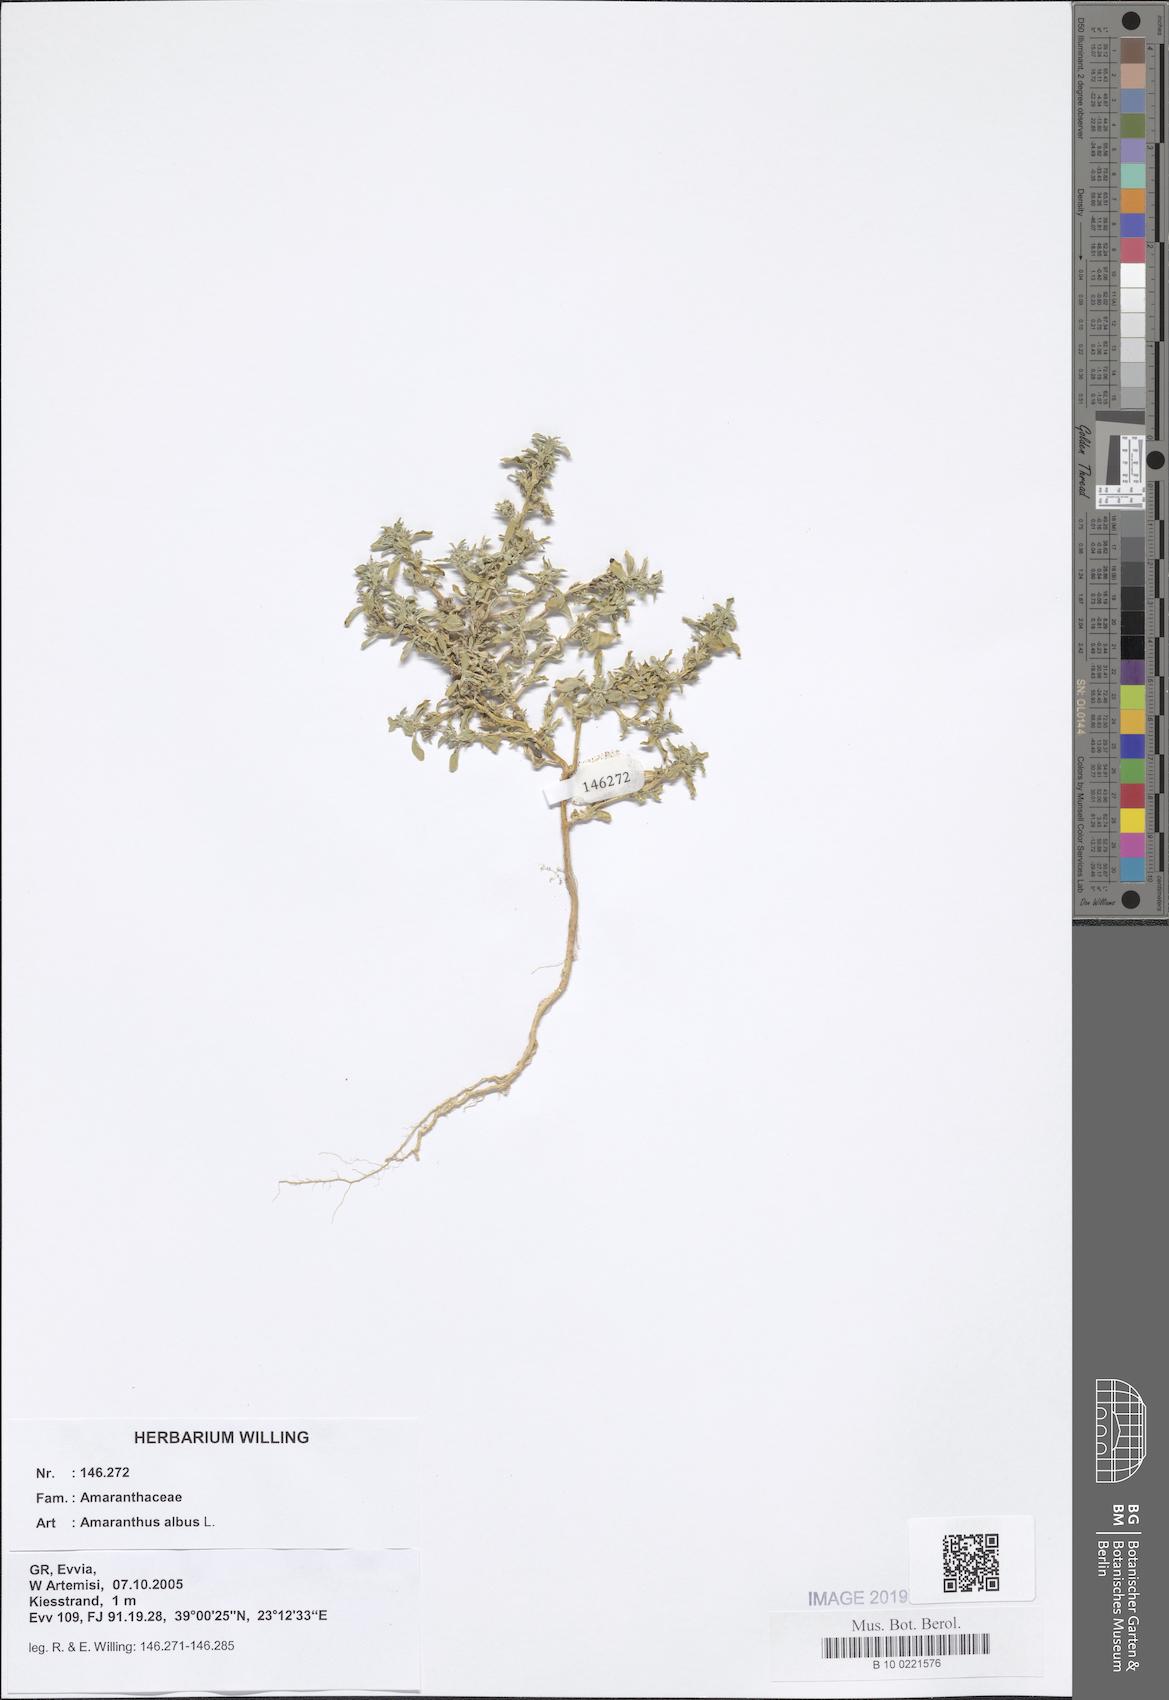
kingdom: Plantae
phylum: Tracheophyta
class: Magnoliopsida
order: Caryophyllales
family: Amaranthaceae
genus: Amaranthus
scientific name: Amaranthus albus
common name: White pigweed
